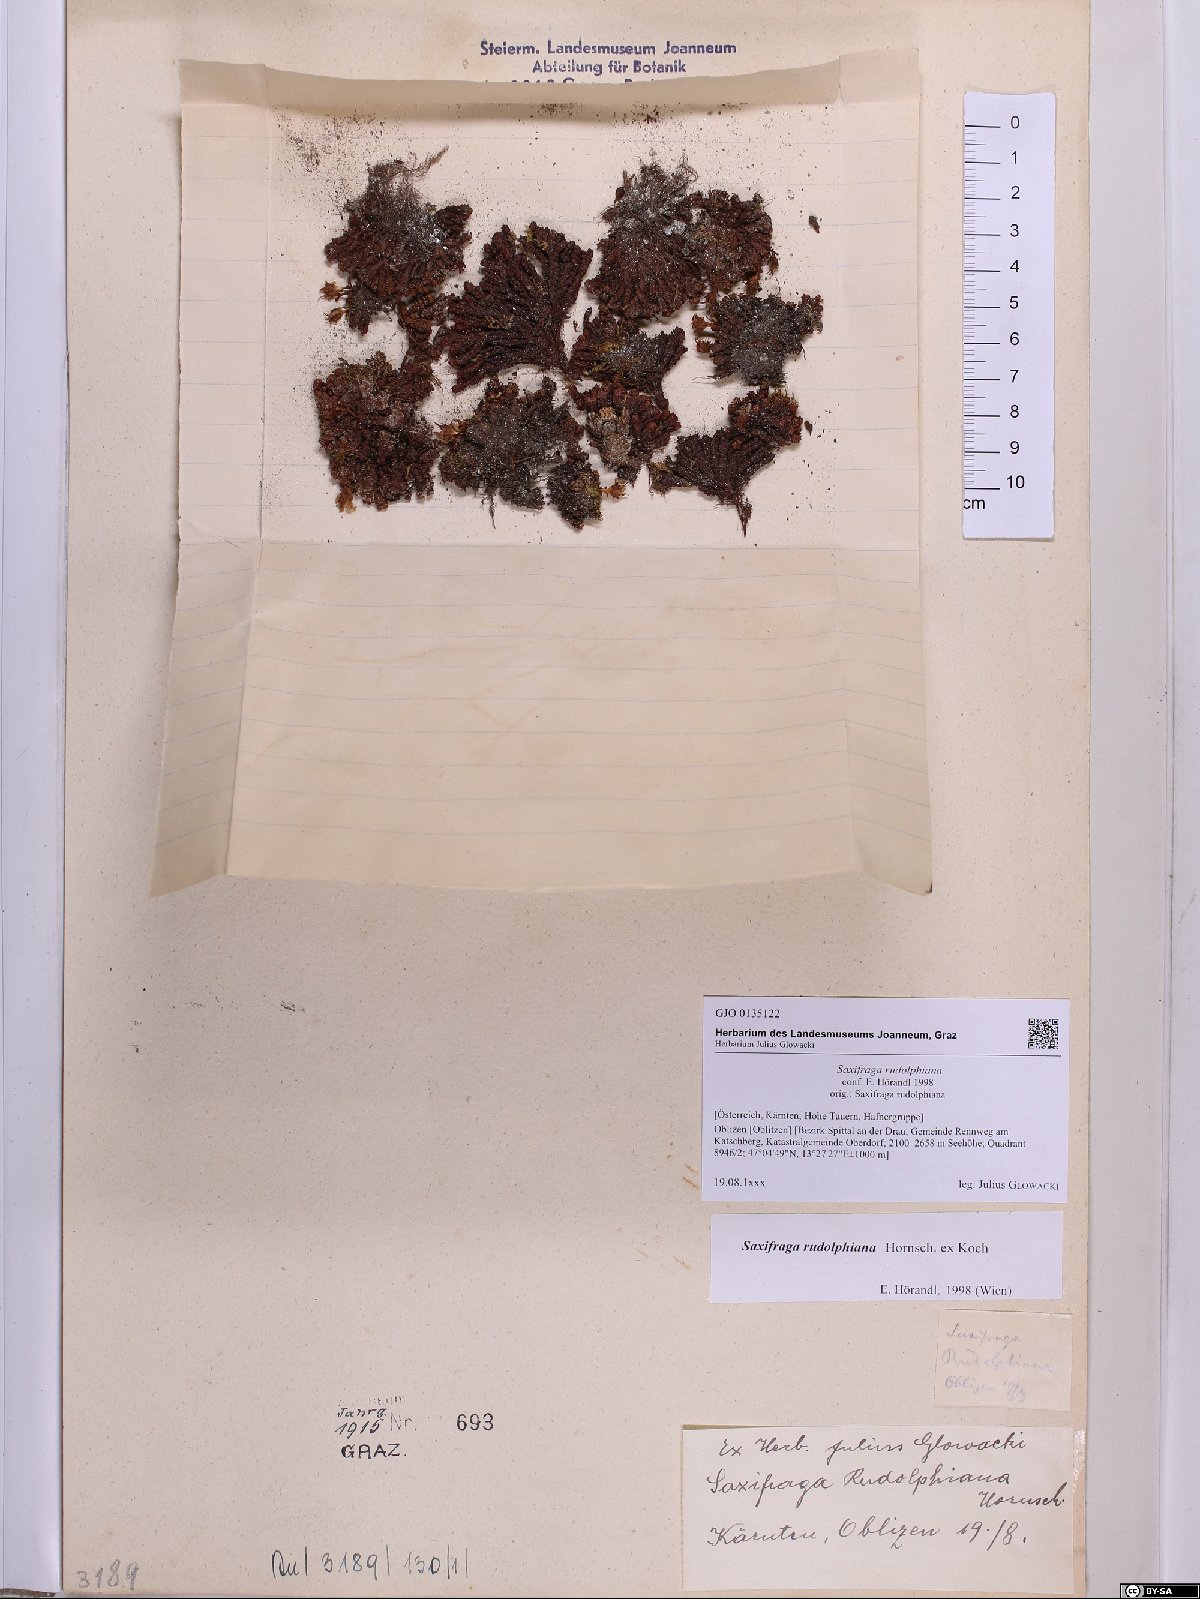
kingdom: Plantae
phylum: Tracheophyta
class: Magnoliopsida
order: Saxifragales
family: Saxifragaceae
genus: Saxifraga
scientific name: Saxifraga oppositifolia
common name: Purple saxifrage
